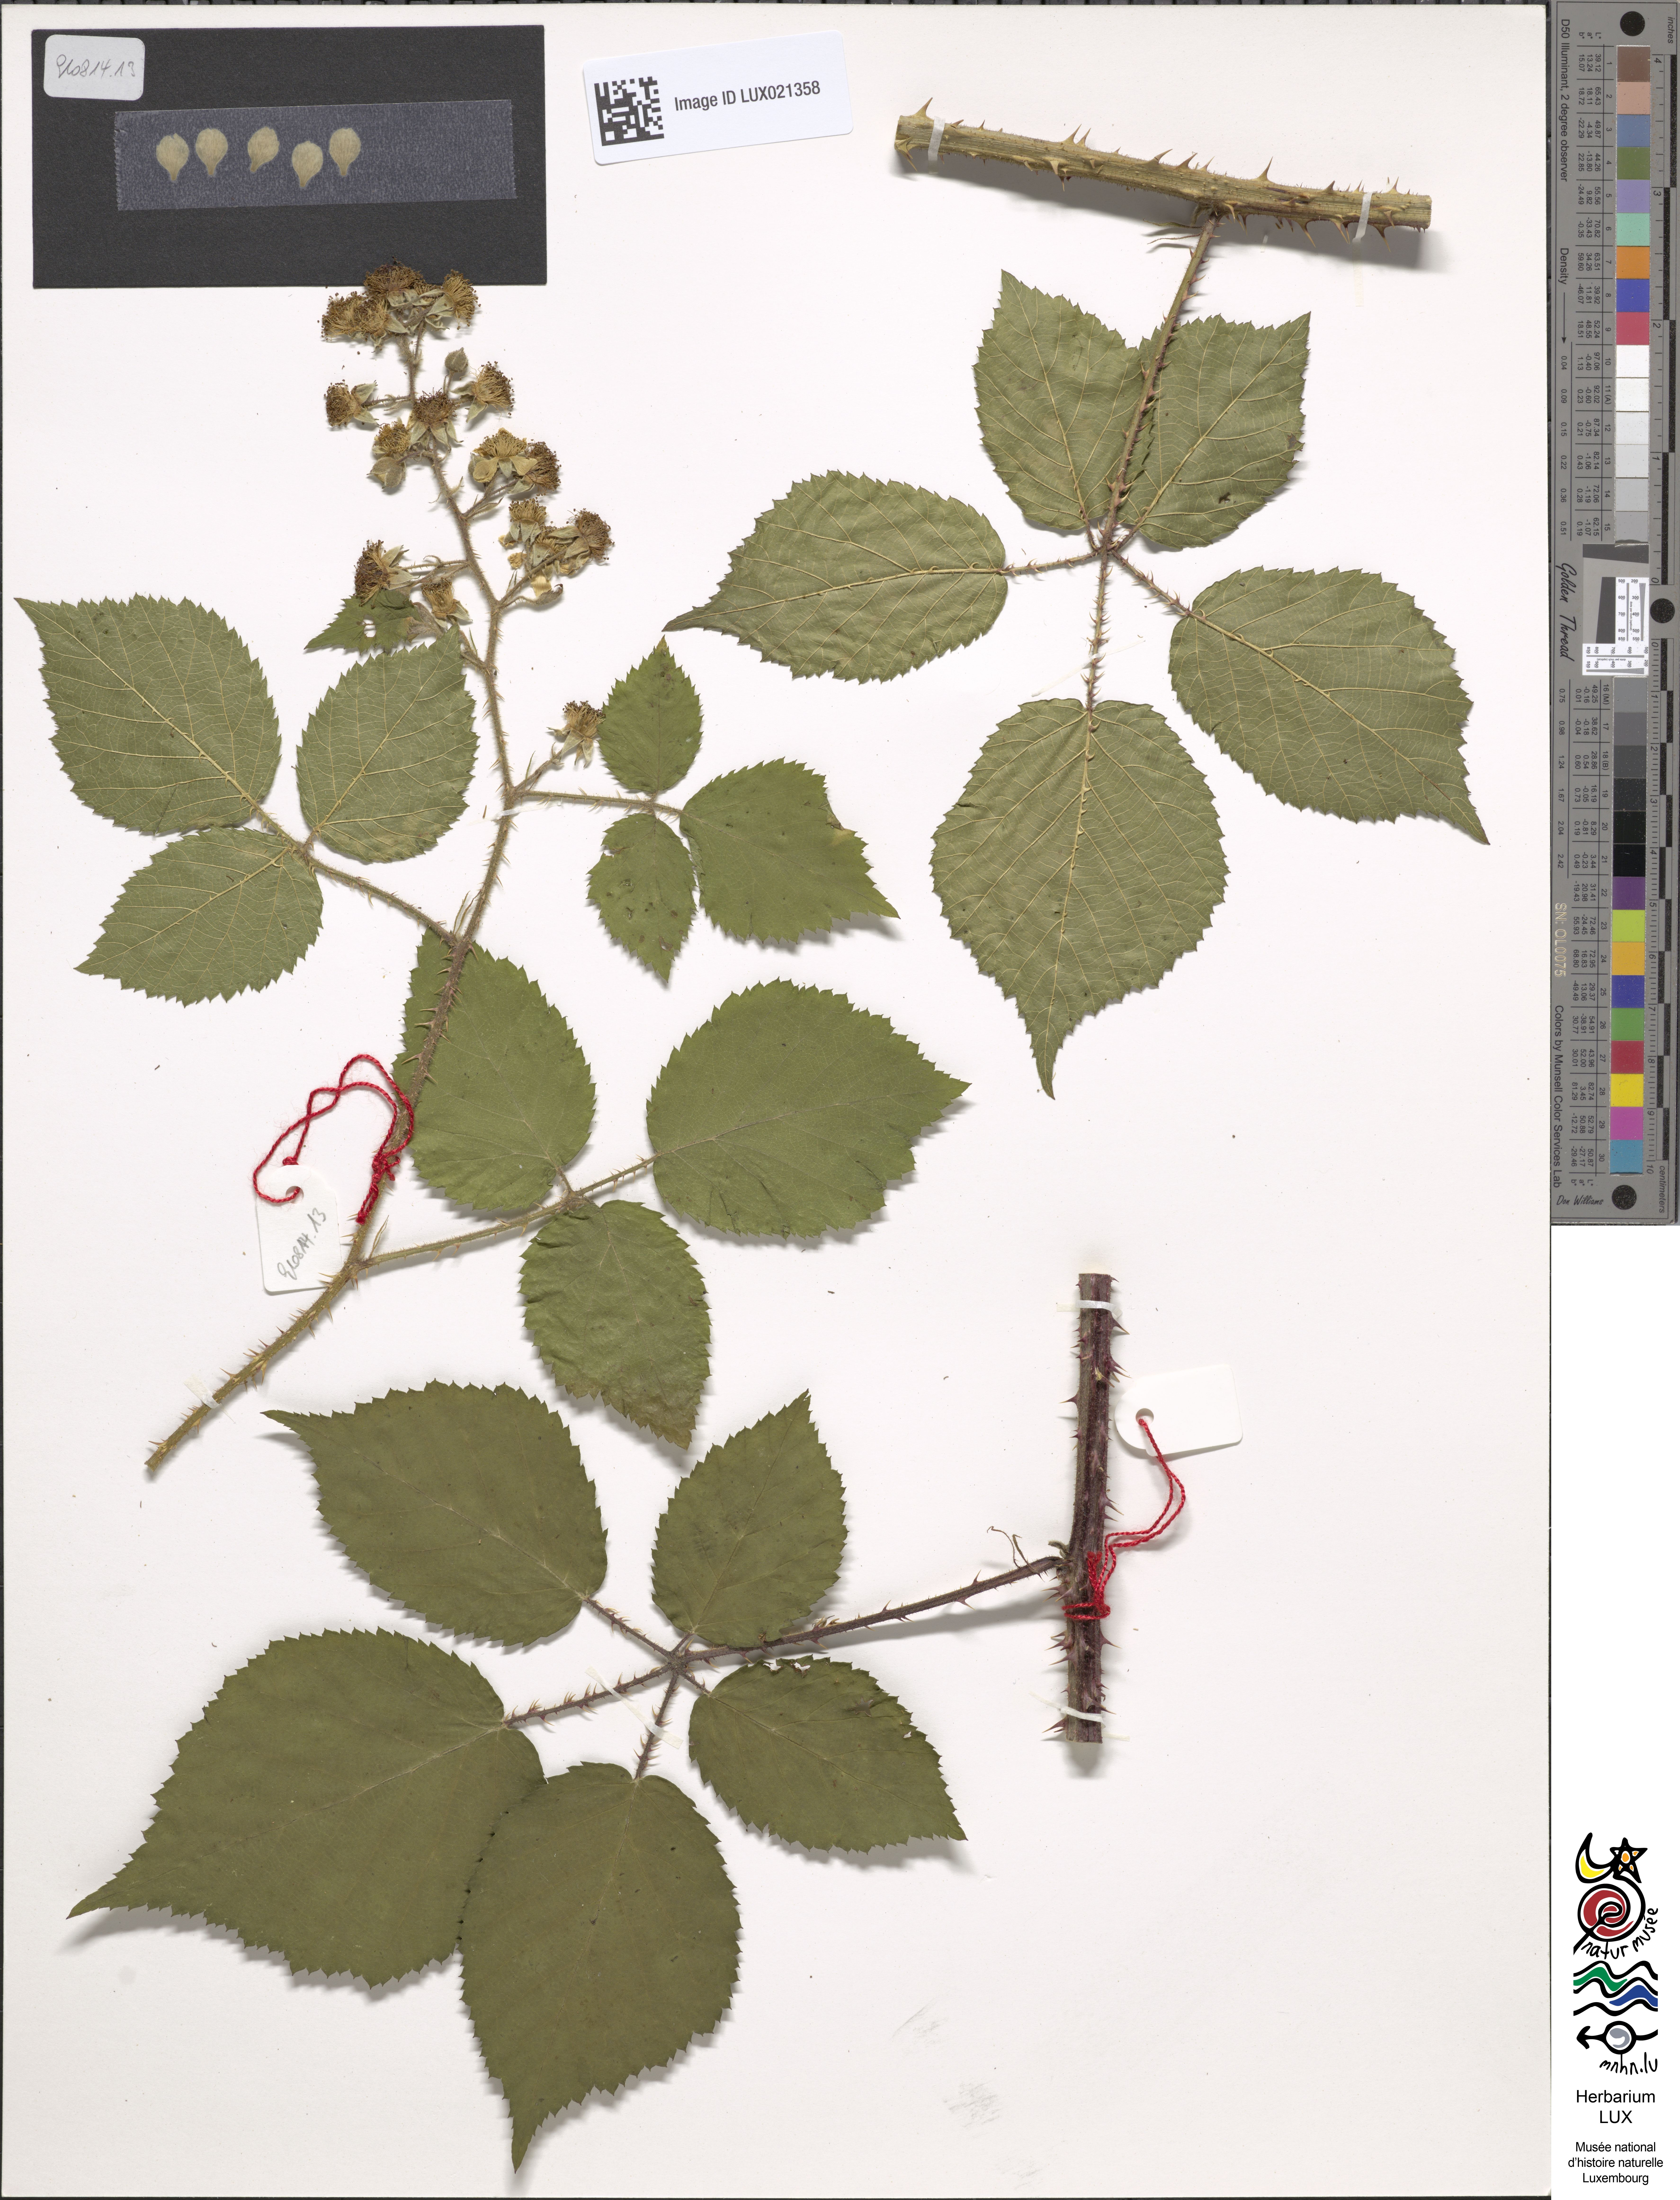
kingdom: Plantae
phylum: Tracheophyta
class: Magnoliopsida
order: Rosales
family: Rosaceae
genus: Rubus
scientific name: Rubus bonus-henricus
